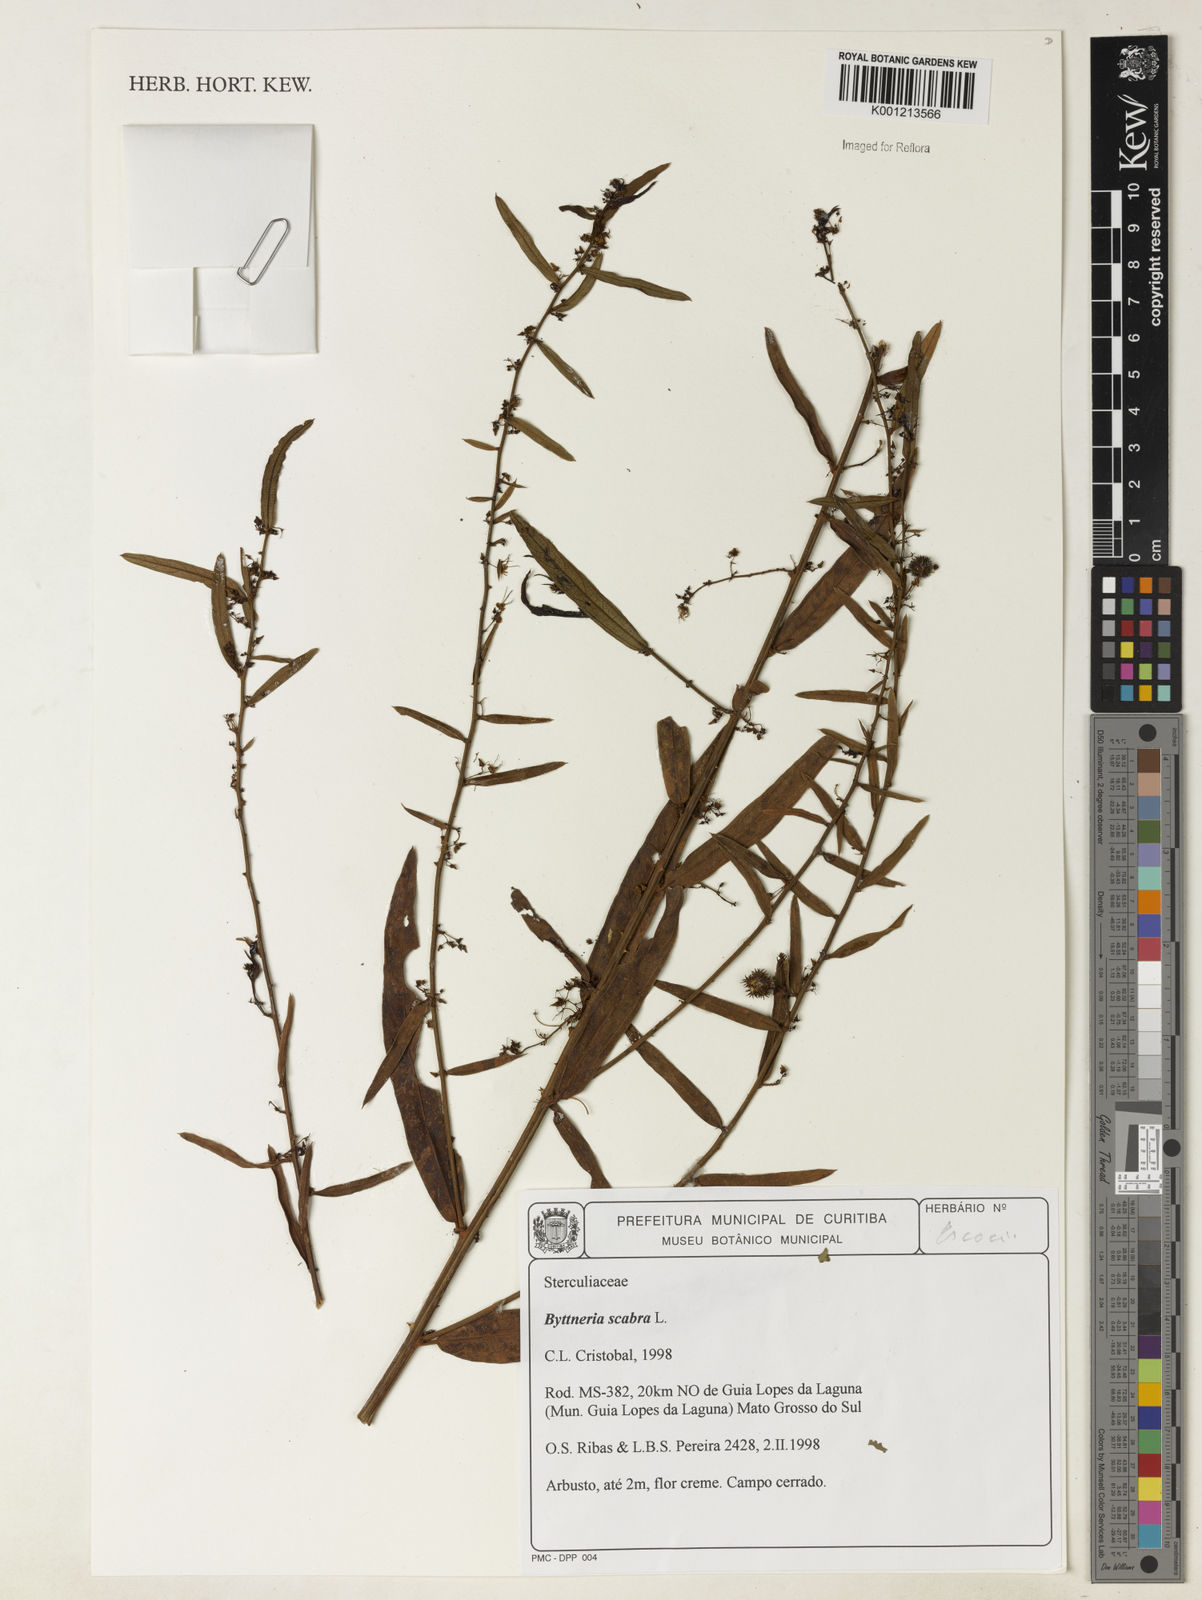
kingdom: Plantae
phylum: Tracheophyta
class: Magnoliopsida
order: Malvales
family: Malvaceae
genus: Byttneria
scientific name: Byttneria
